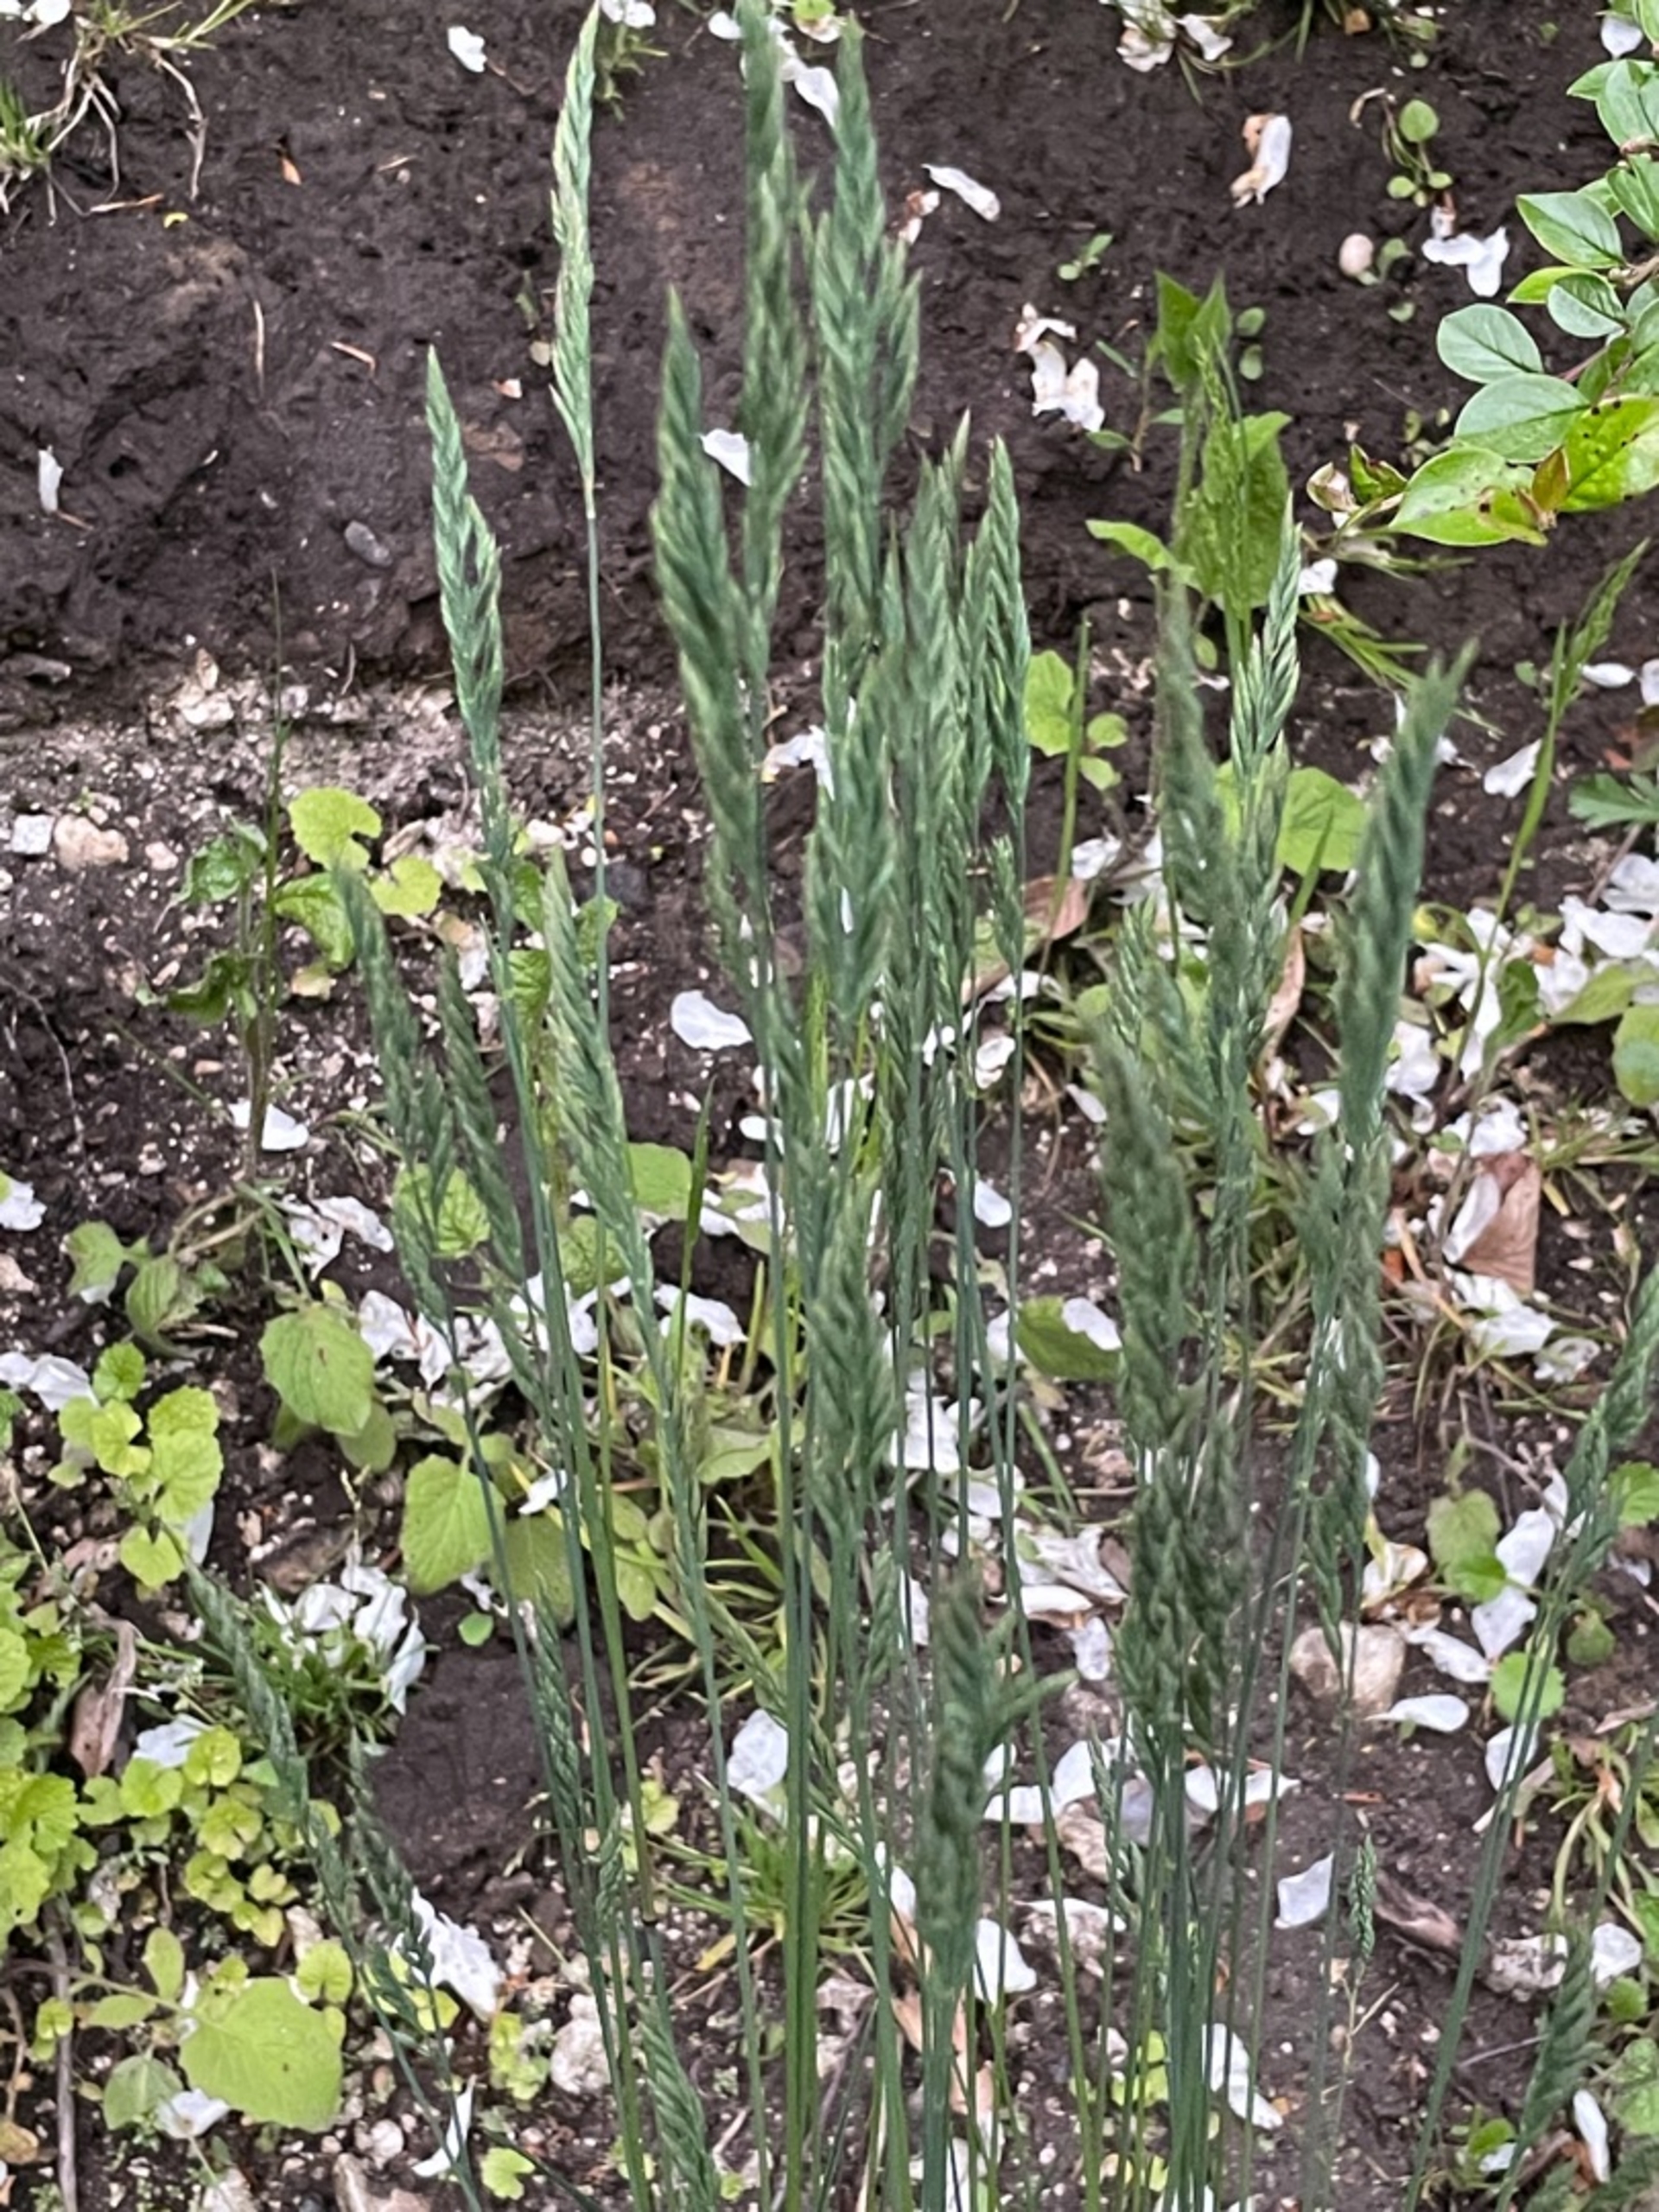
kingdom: Plantae
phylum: Tracheophyta
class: Liliopsida
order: Poales
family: Poaceae
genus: Festuca
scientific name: Festuca
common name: Svingelslægten
